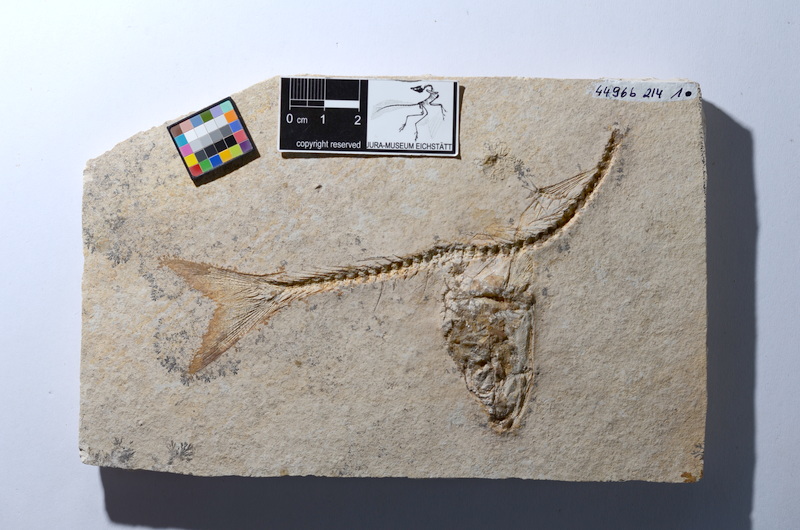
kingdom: Animalia
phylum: Chordata
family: Ascalaboidae
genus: Tharsis
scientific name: Tharsis dubius
